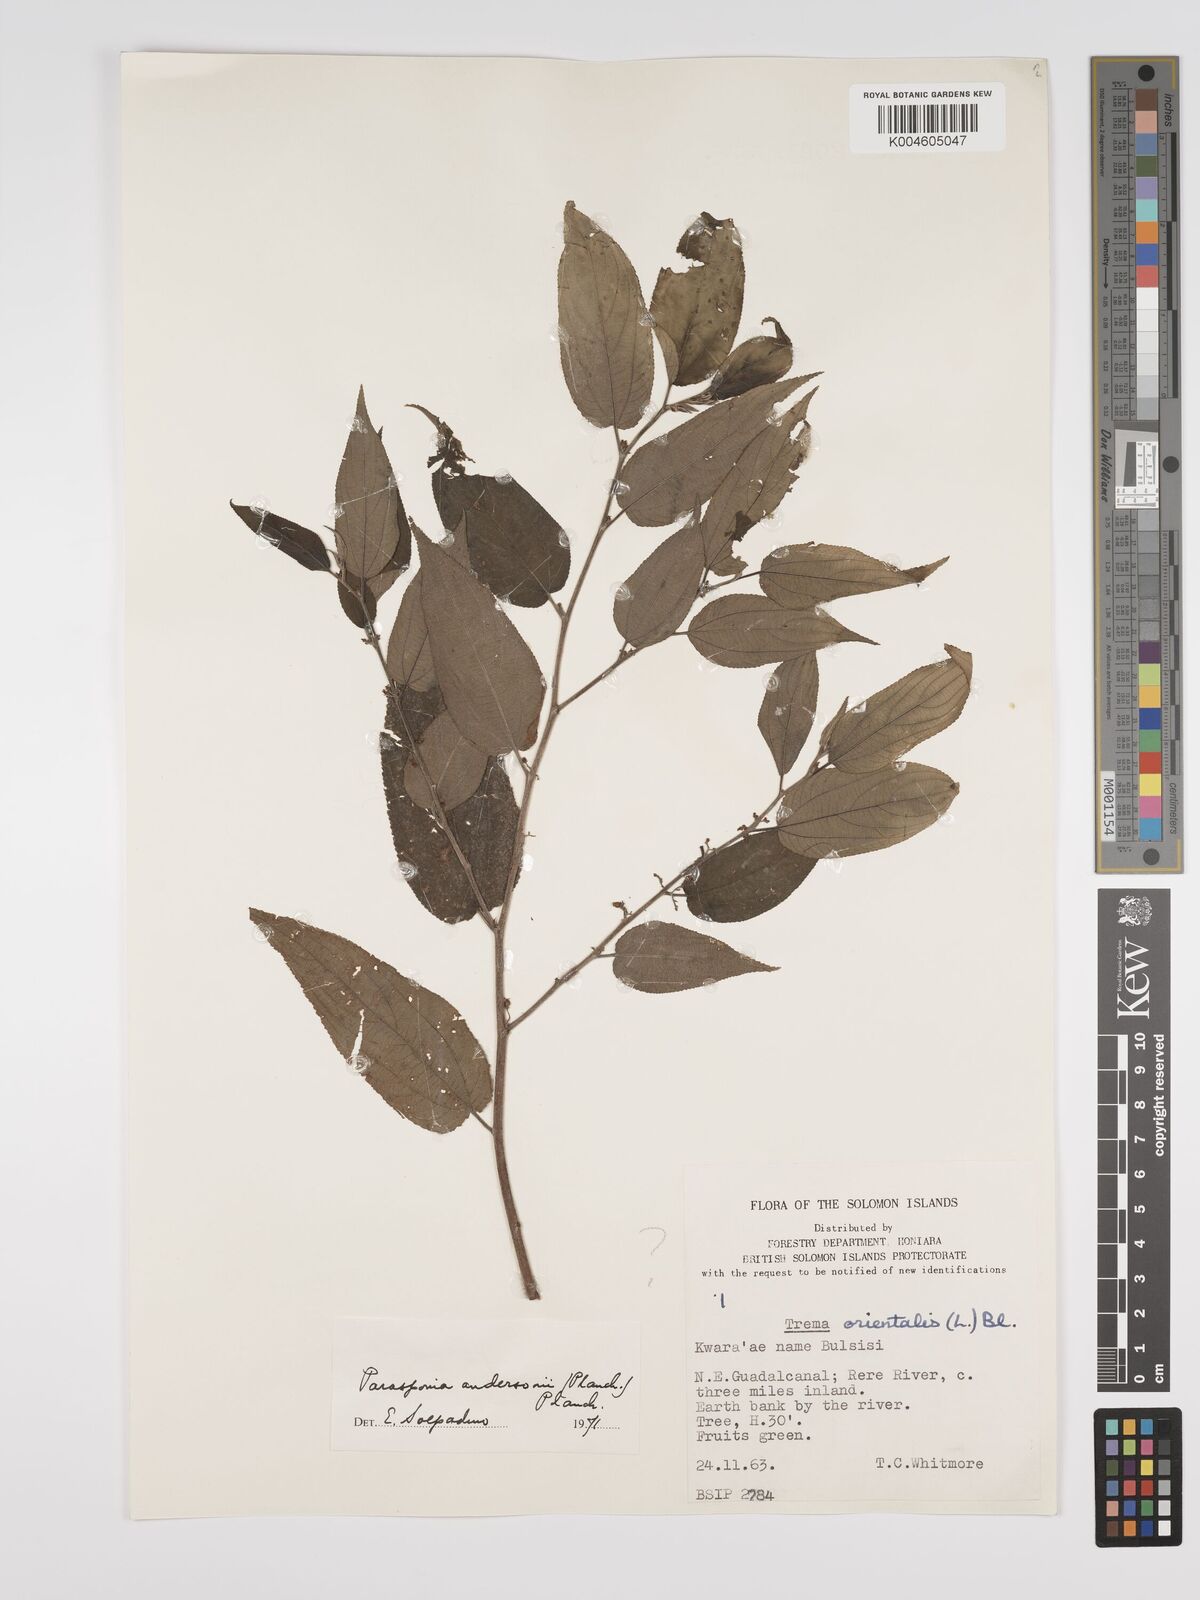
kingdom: Plantae
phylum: Tracheophyta
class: Magnoliopsida
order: Rosales
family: Cannabaceae
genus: Trema
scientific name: Trema andersonii
